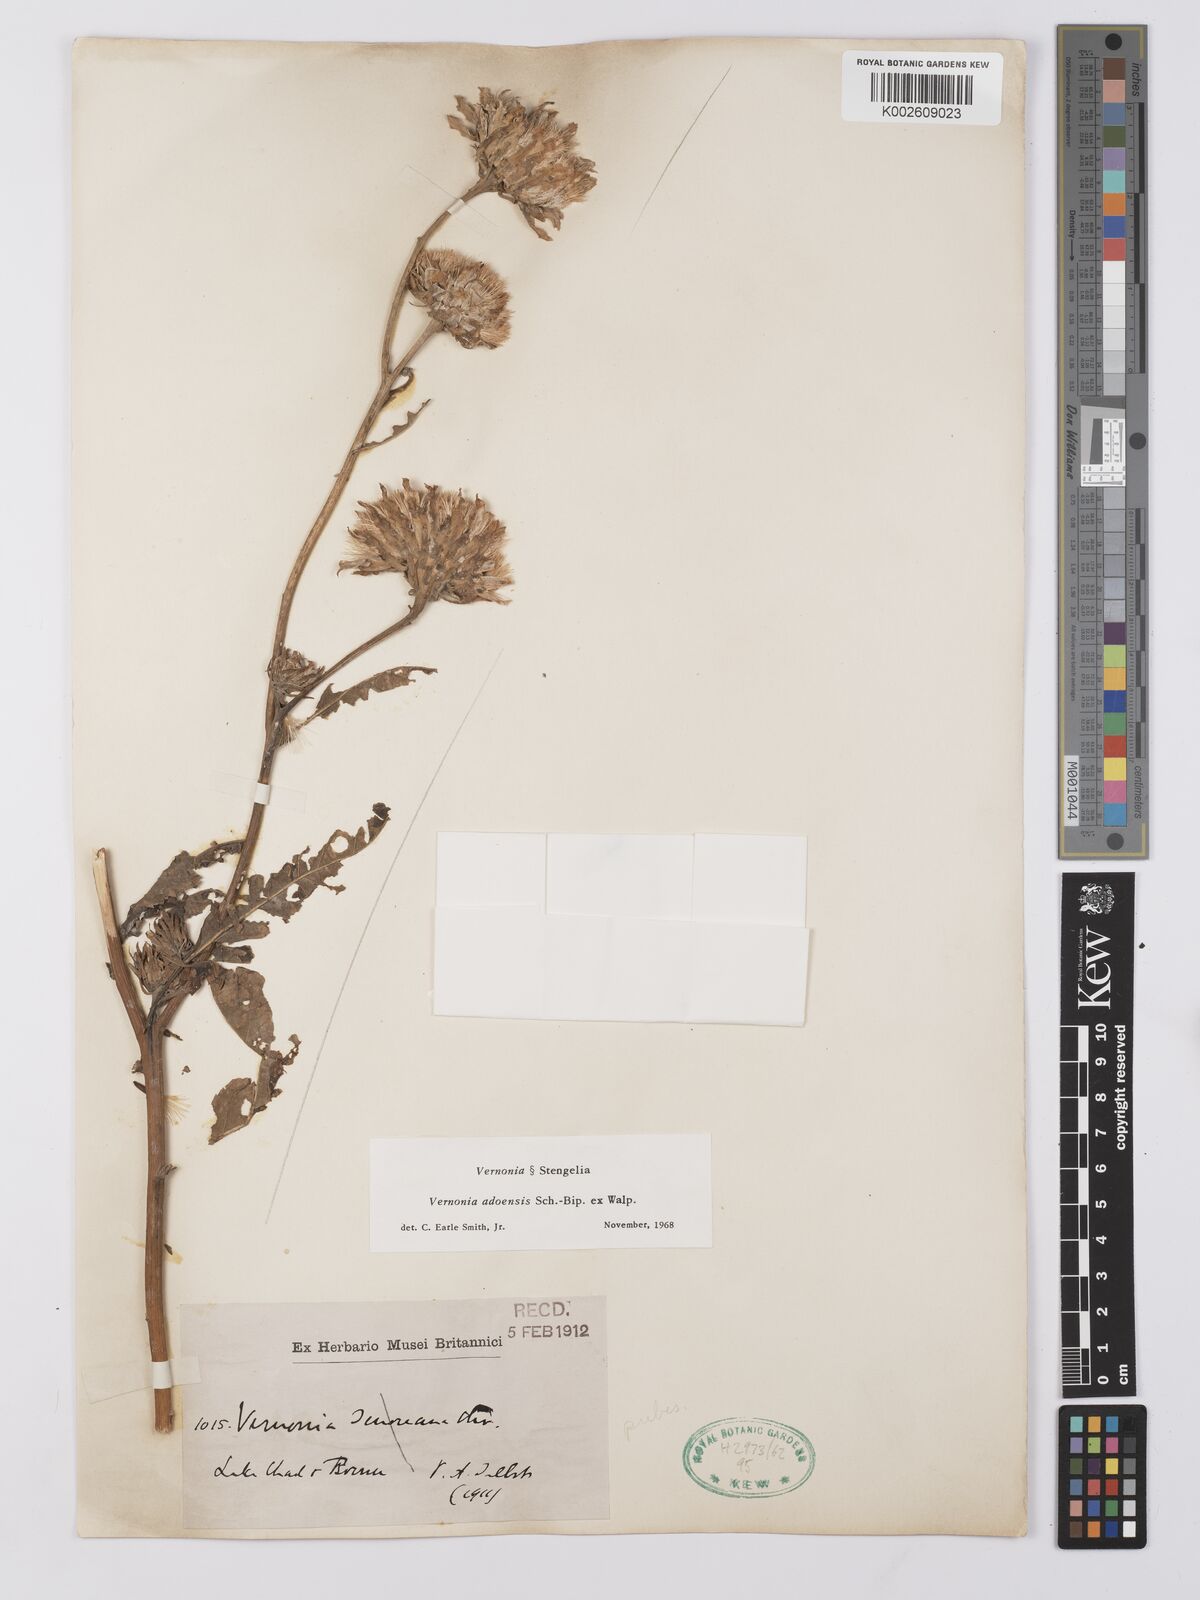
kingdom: Plantae
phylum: Tracheophyta
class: Magnoliopsida
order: Asterales
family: Asteraceae
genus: Baccharoides
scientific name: Baccharoides adoensis
